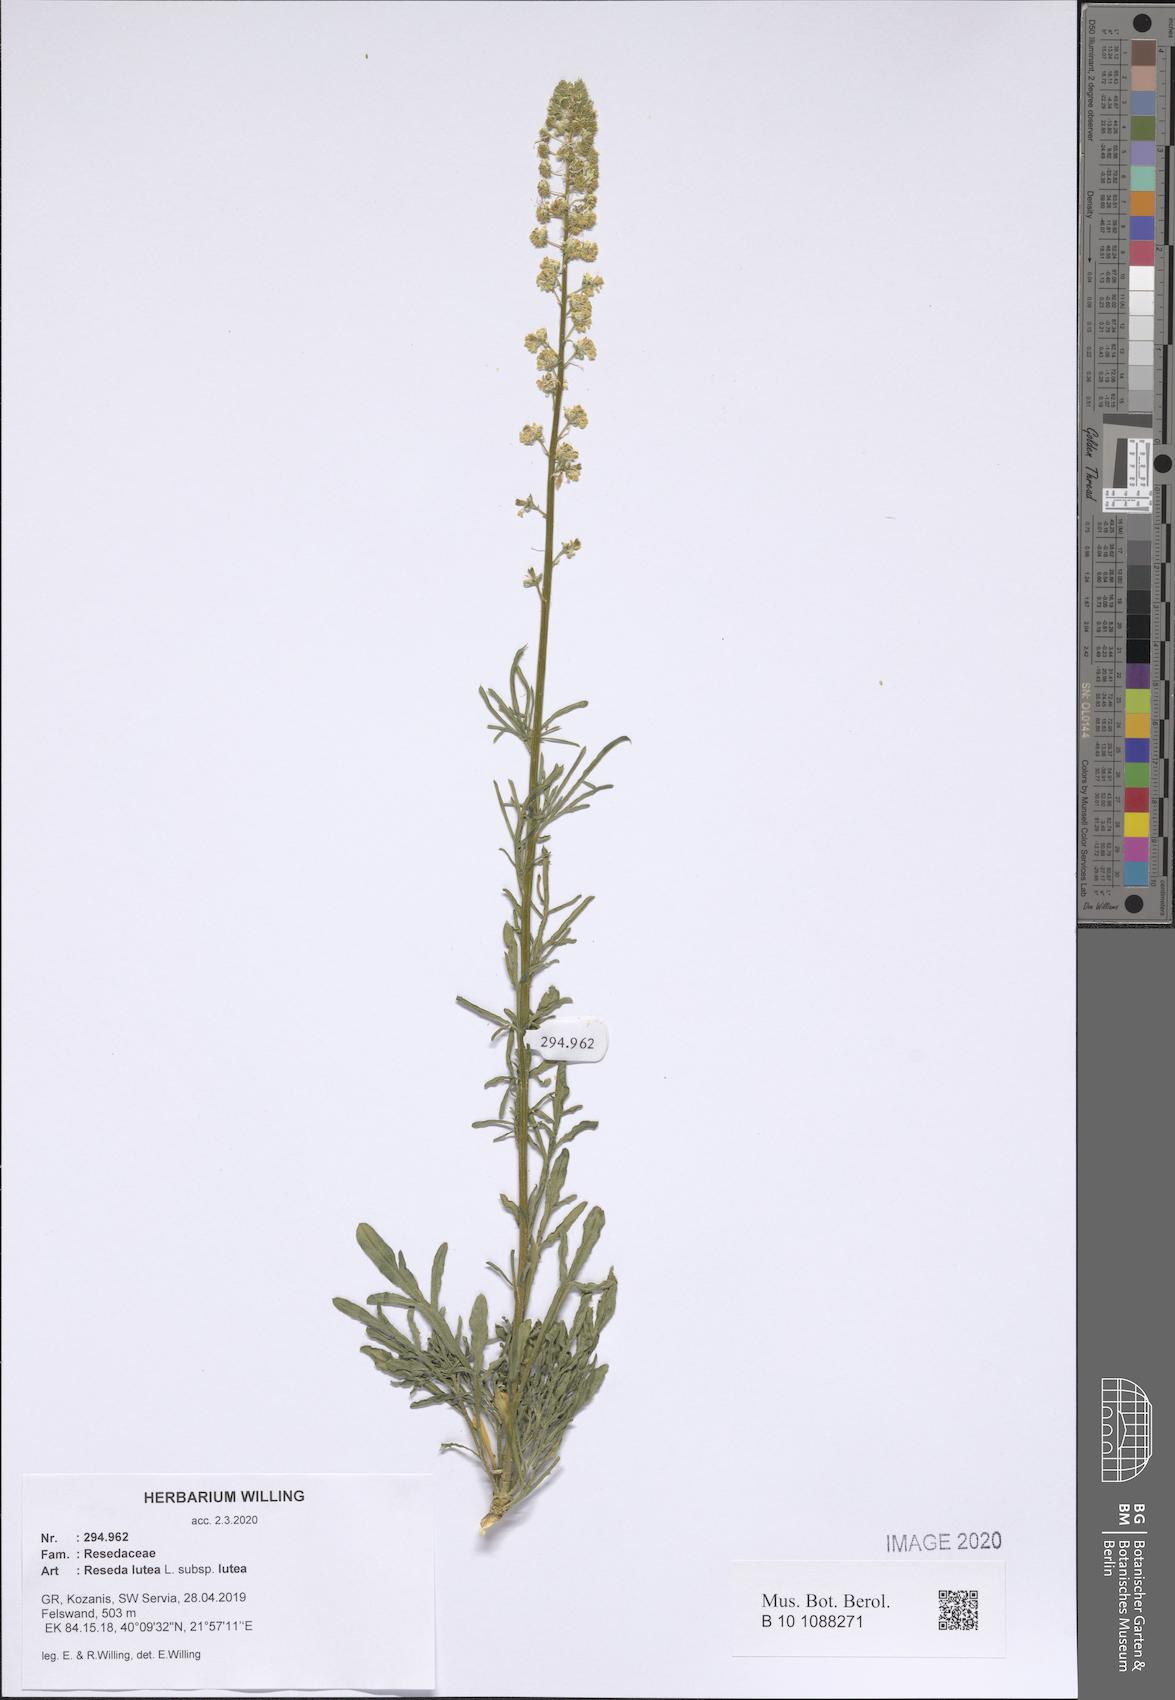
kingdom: Plantae
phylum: Tracheophyta
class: Magnoliopsida
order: Brassicales
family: Resedaceae
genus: Reseda
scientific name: Reseda lutea
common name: Wild mignonette
